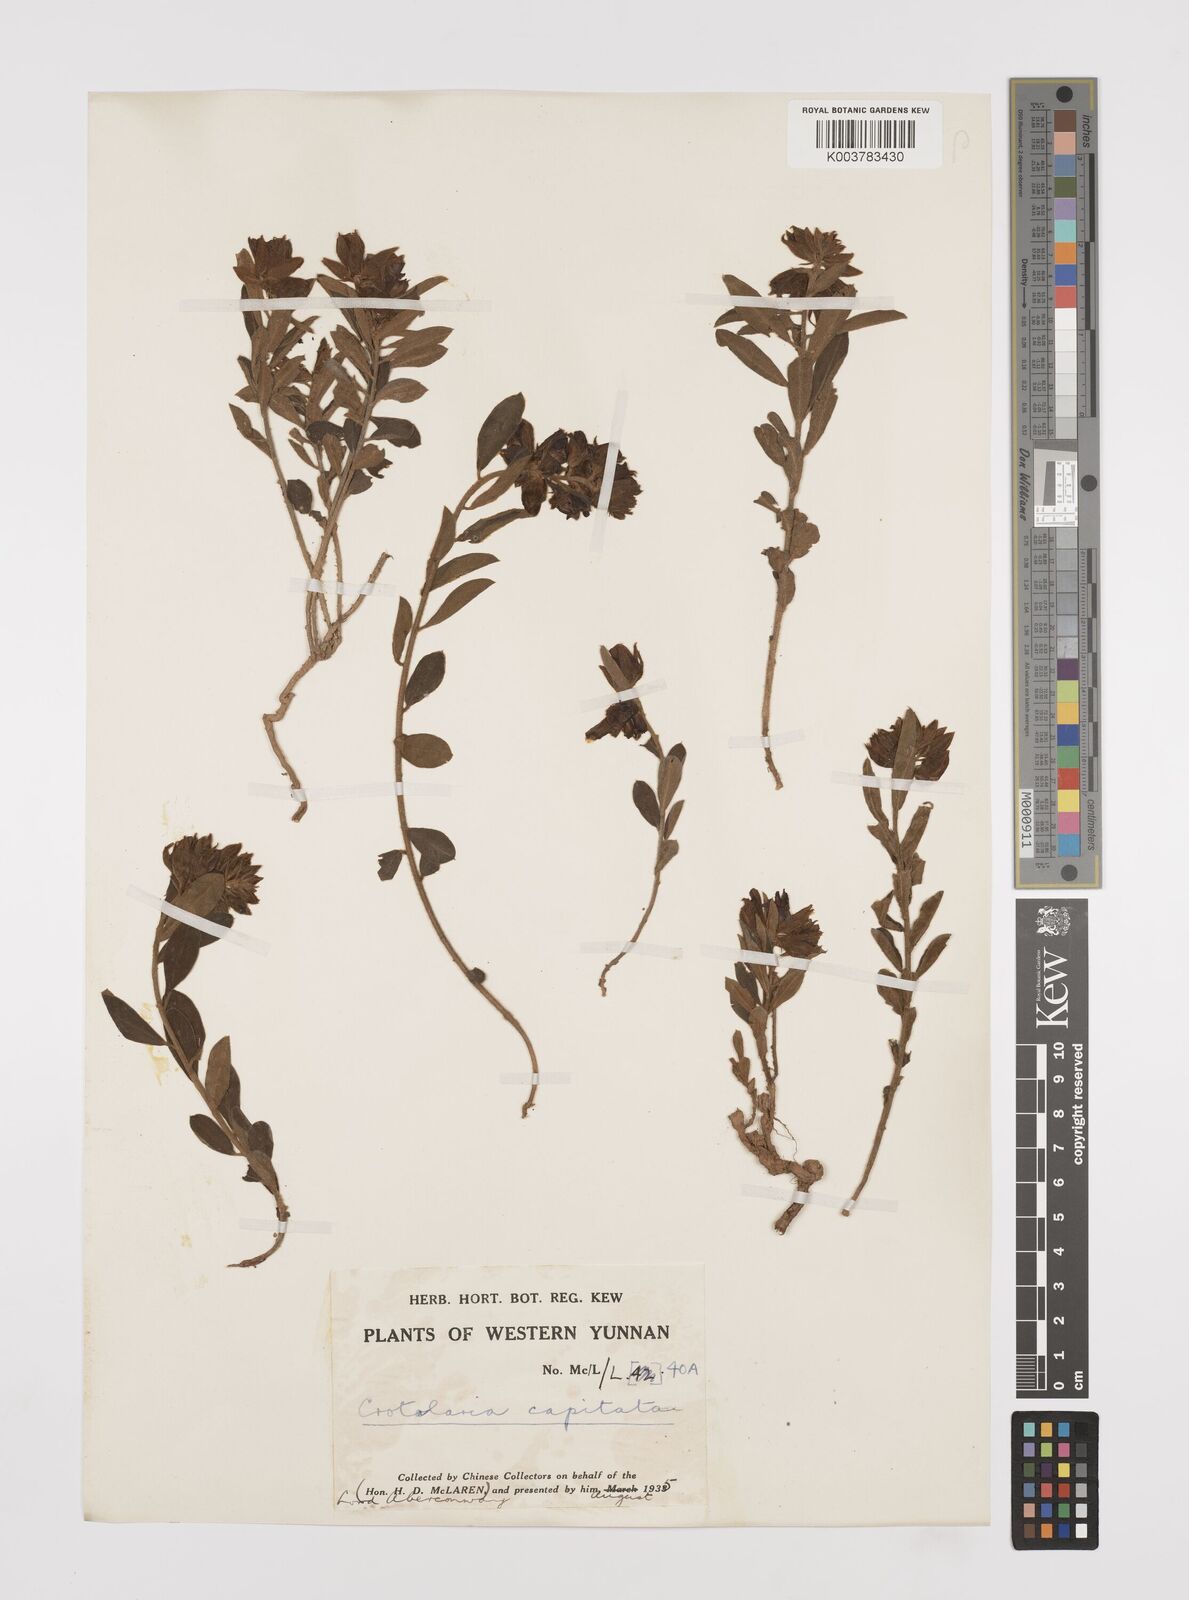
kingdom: Plantae
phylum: Tracheophyta
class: Magnoliopsida
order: Fabales
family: Fabaceae
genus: Liparia
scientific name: Liparia capitata
